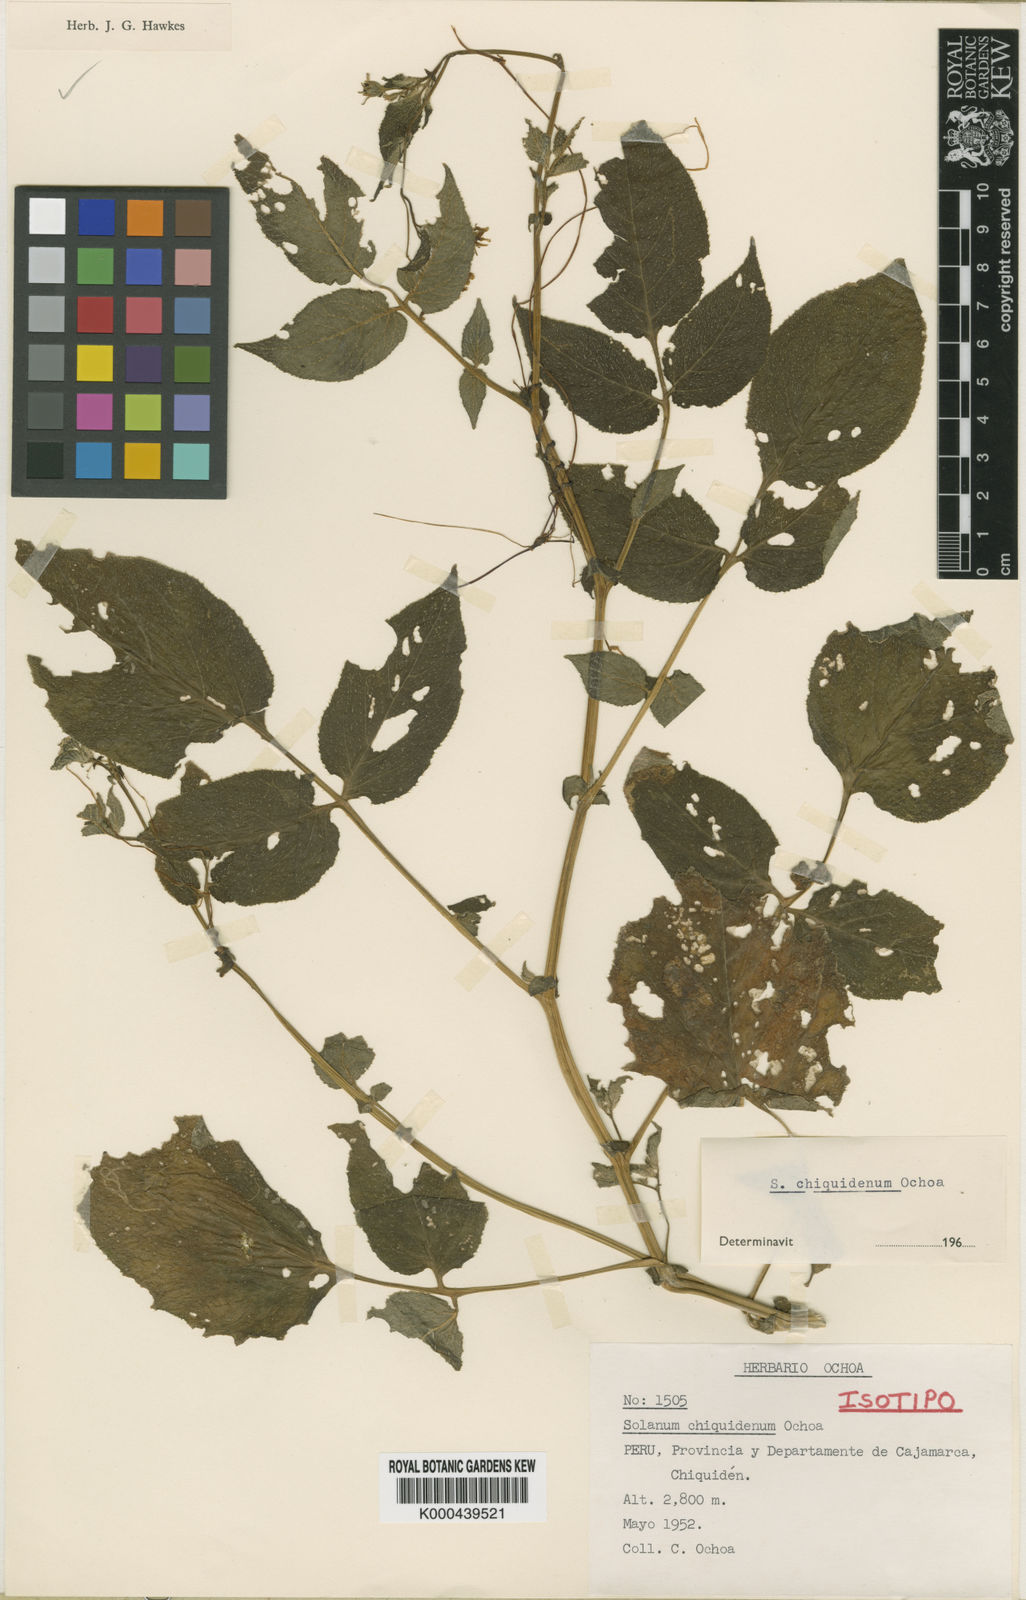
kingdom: Plantae
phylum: Tracheophyta
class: Magnoliopsida
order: Solanales
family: Solanaceae
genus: Solanum
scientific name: Solanum chiquidenum
